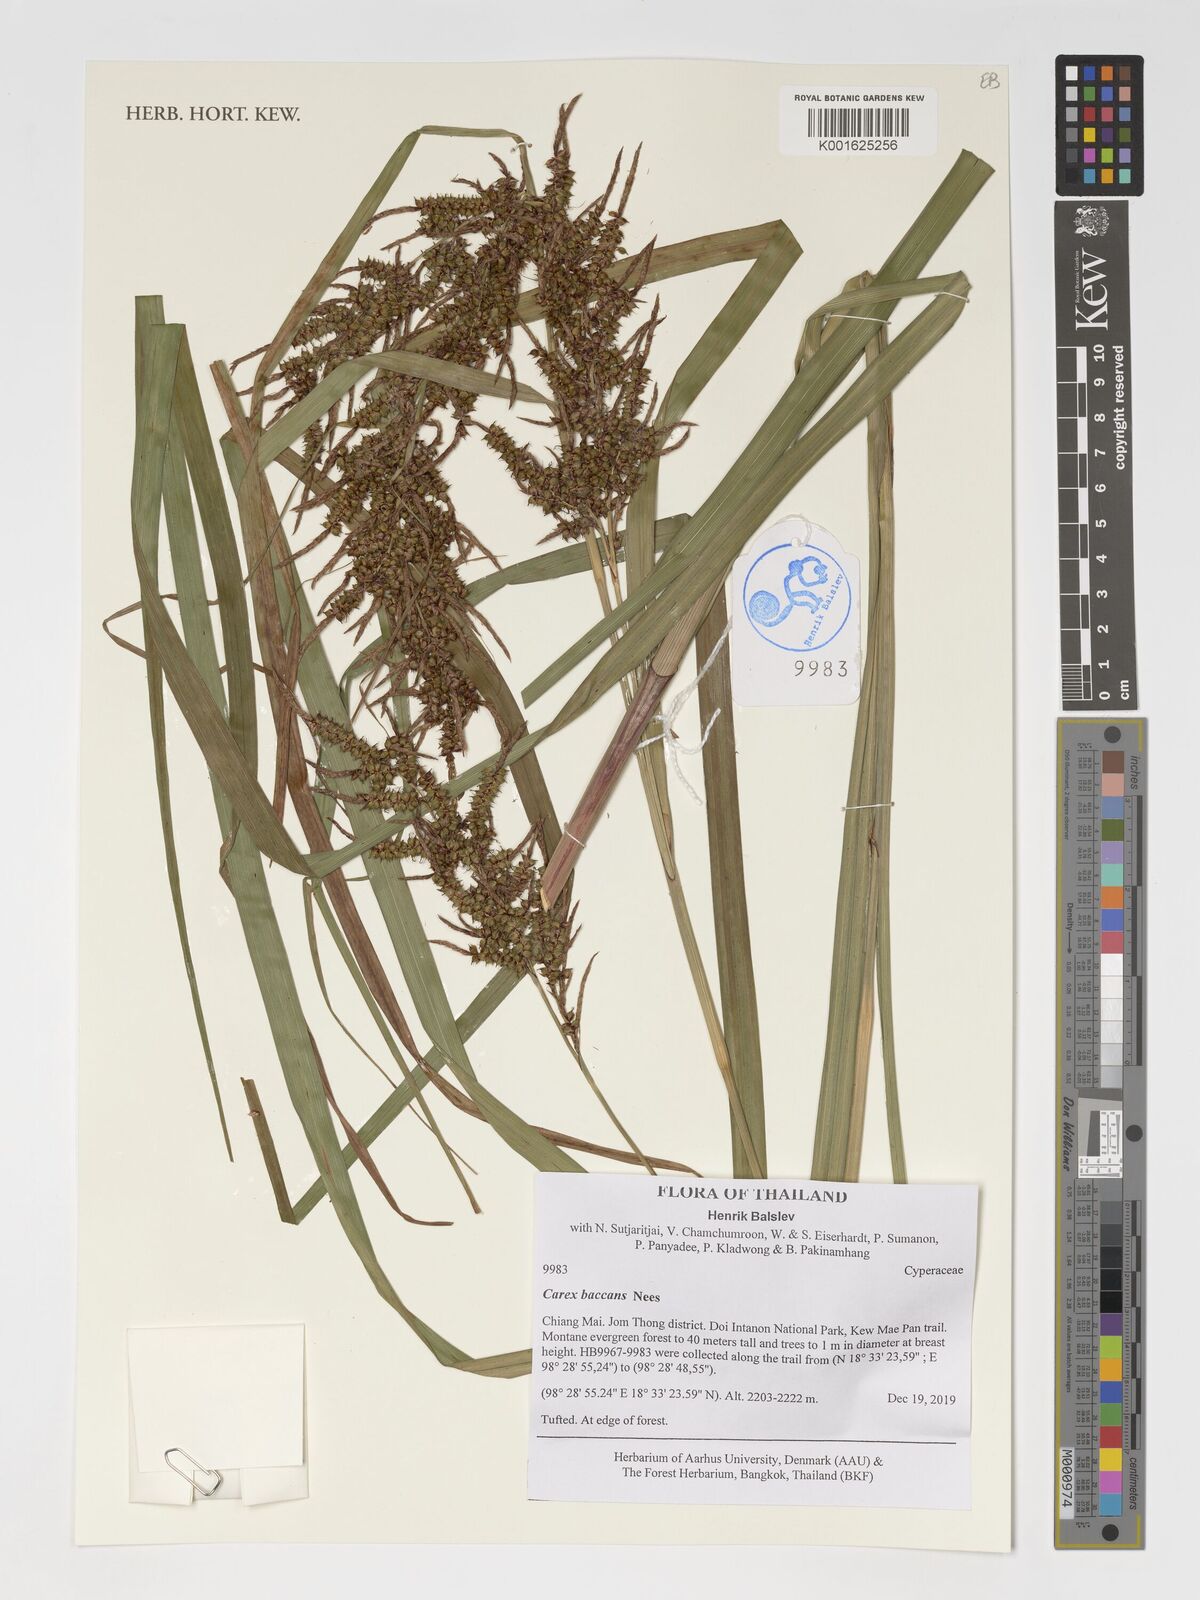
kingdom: Plantae
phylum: Tracheophyta
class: Liliopsida
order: Poales
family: Cyperaceae
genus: Carex
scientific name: Carex baccans
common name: Crimson seeded sedge
